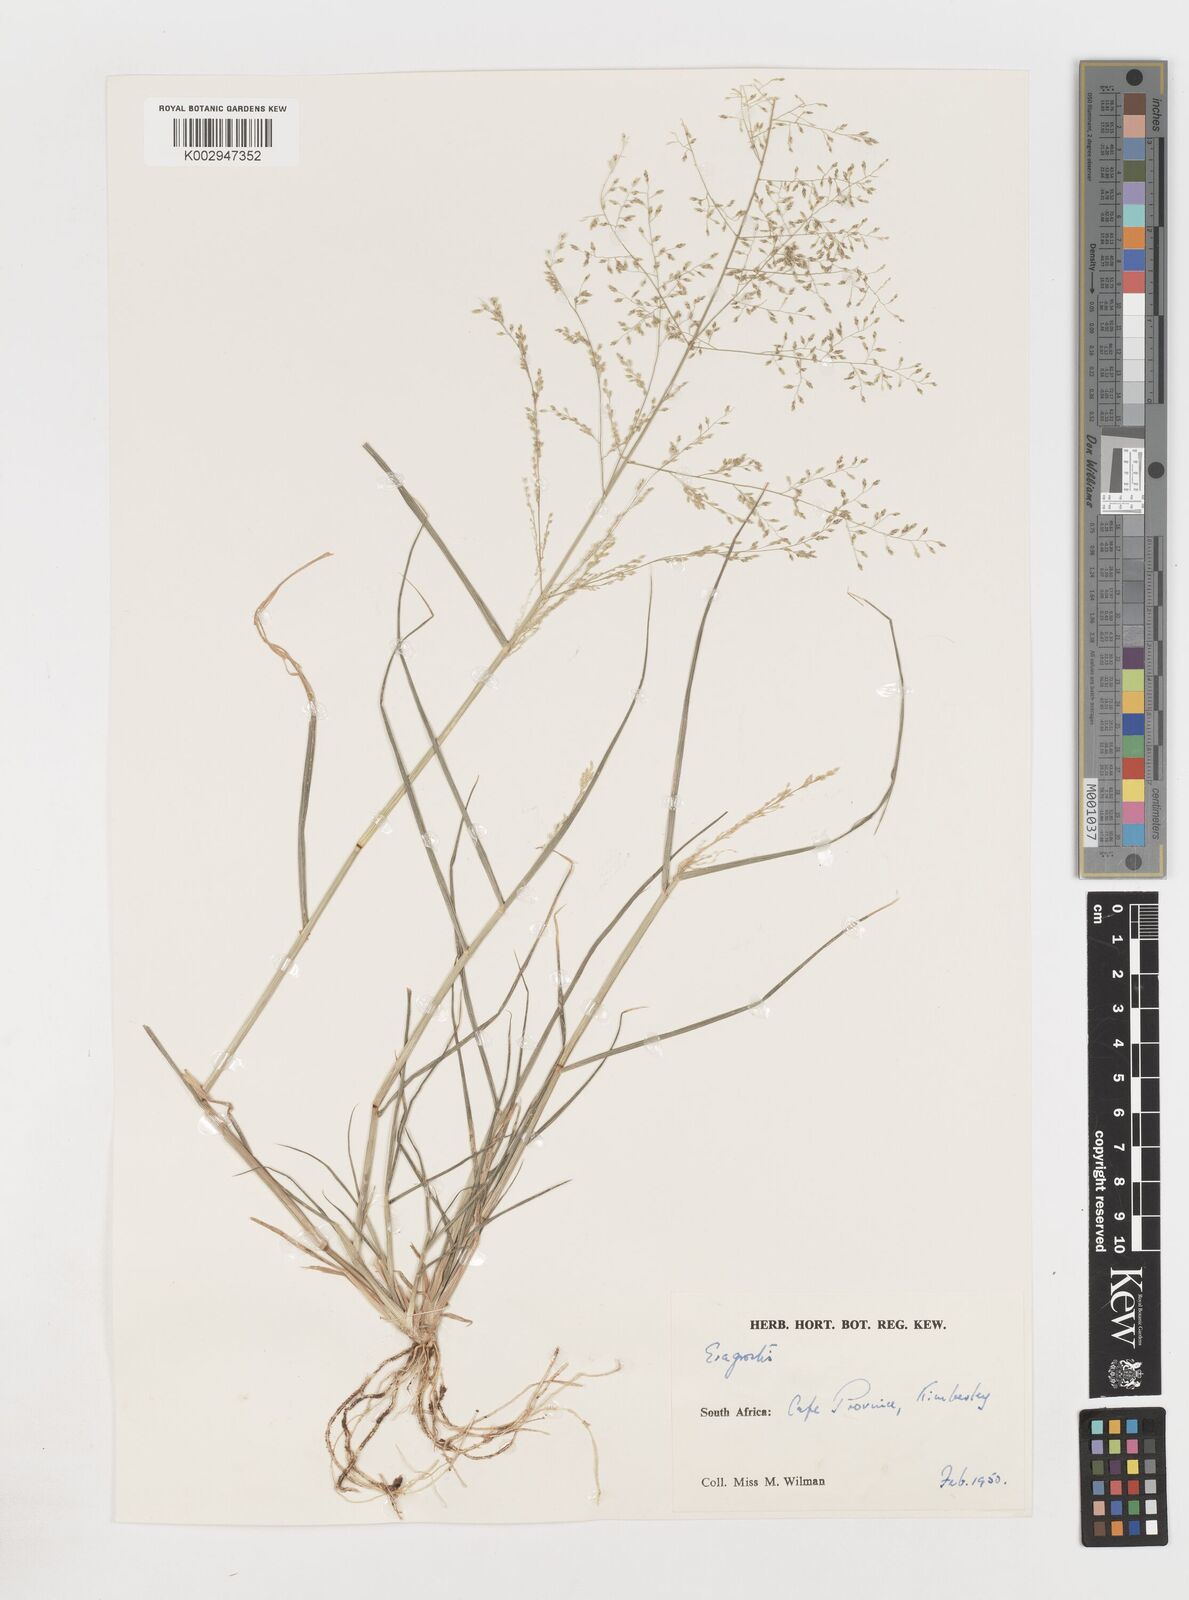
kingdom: Plantae
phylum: Tracheophyta
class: Liliopsida
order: Poales
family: Poaceae
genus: Eragrostis
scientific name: Eragrostis
